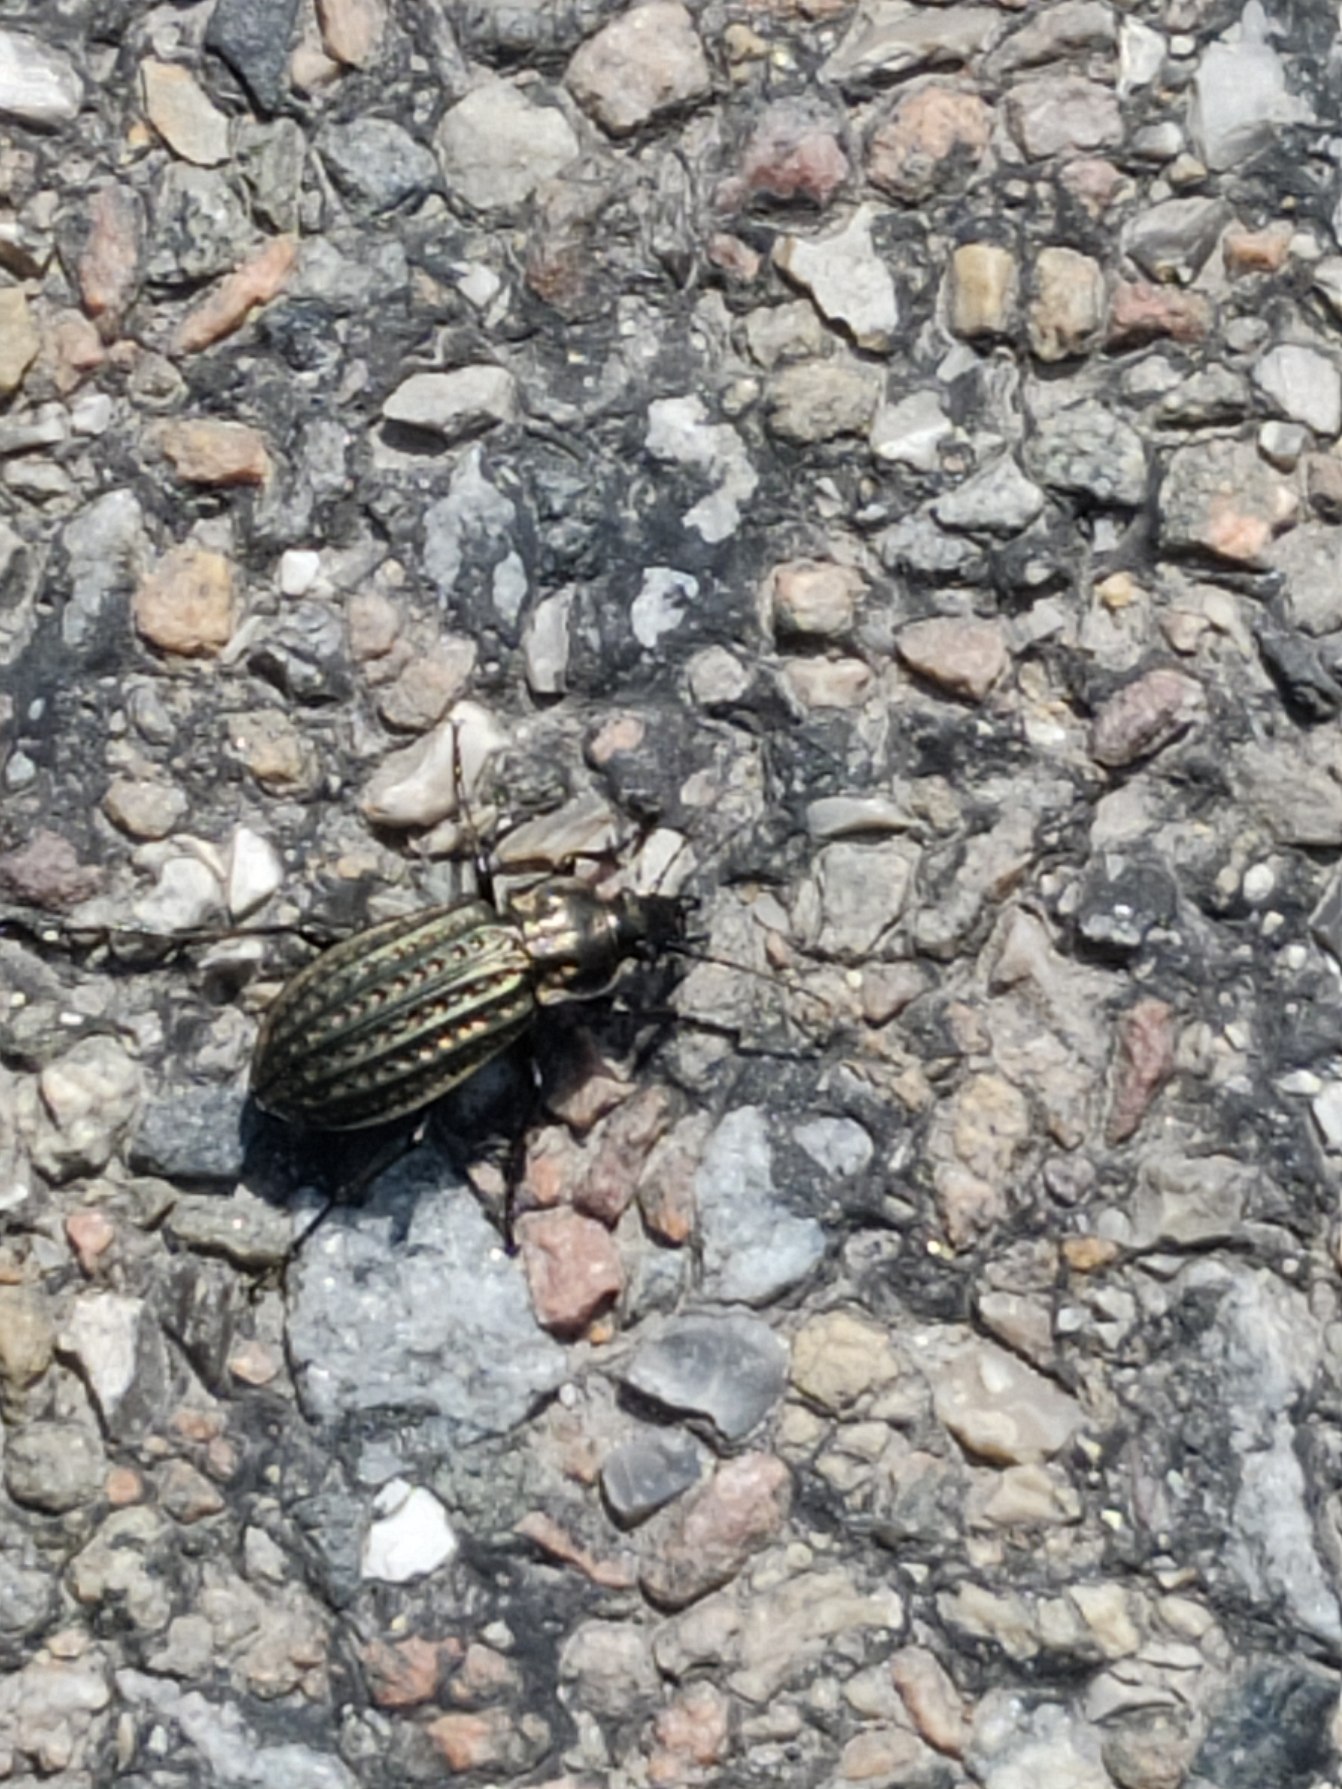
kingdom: Animalia
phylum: Arthropoda
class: Insecta
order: Coleoptera
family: Carabidae
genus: Carabus
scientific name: Carabus clatratus
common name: Dyndløber
